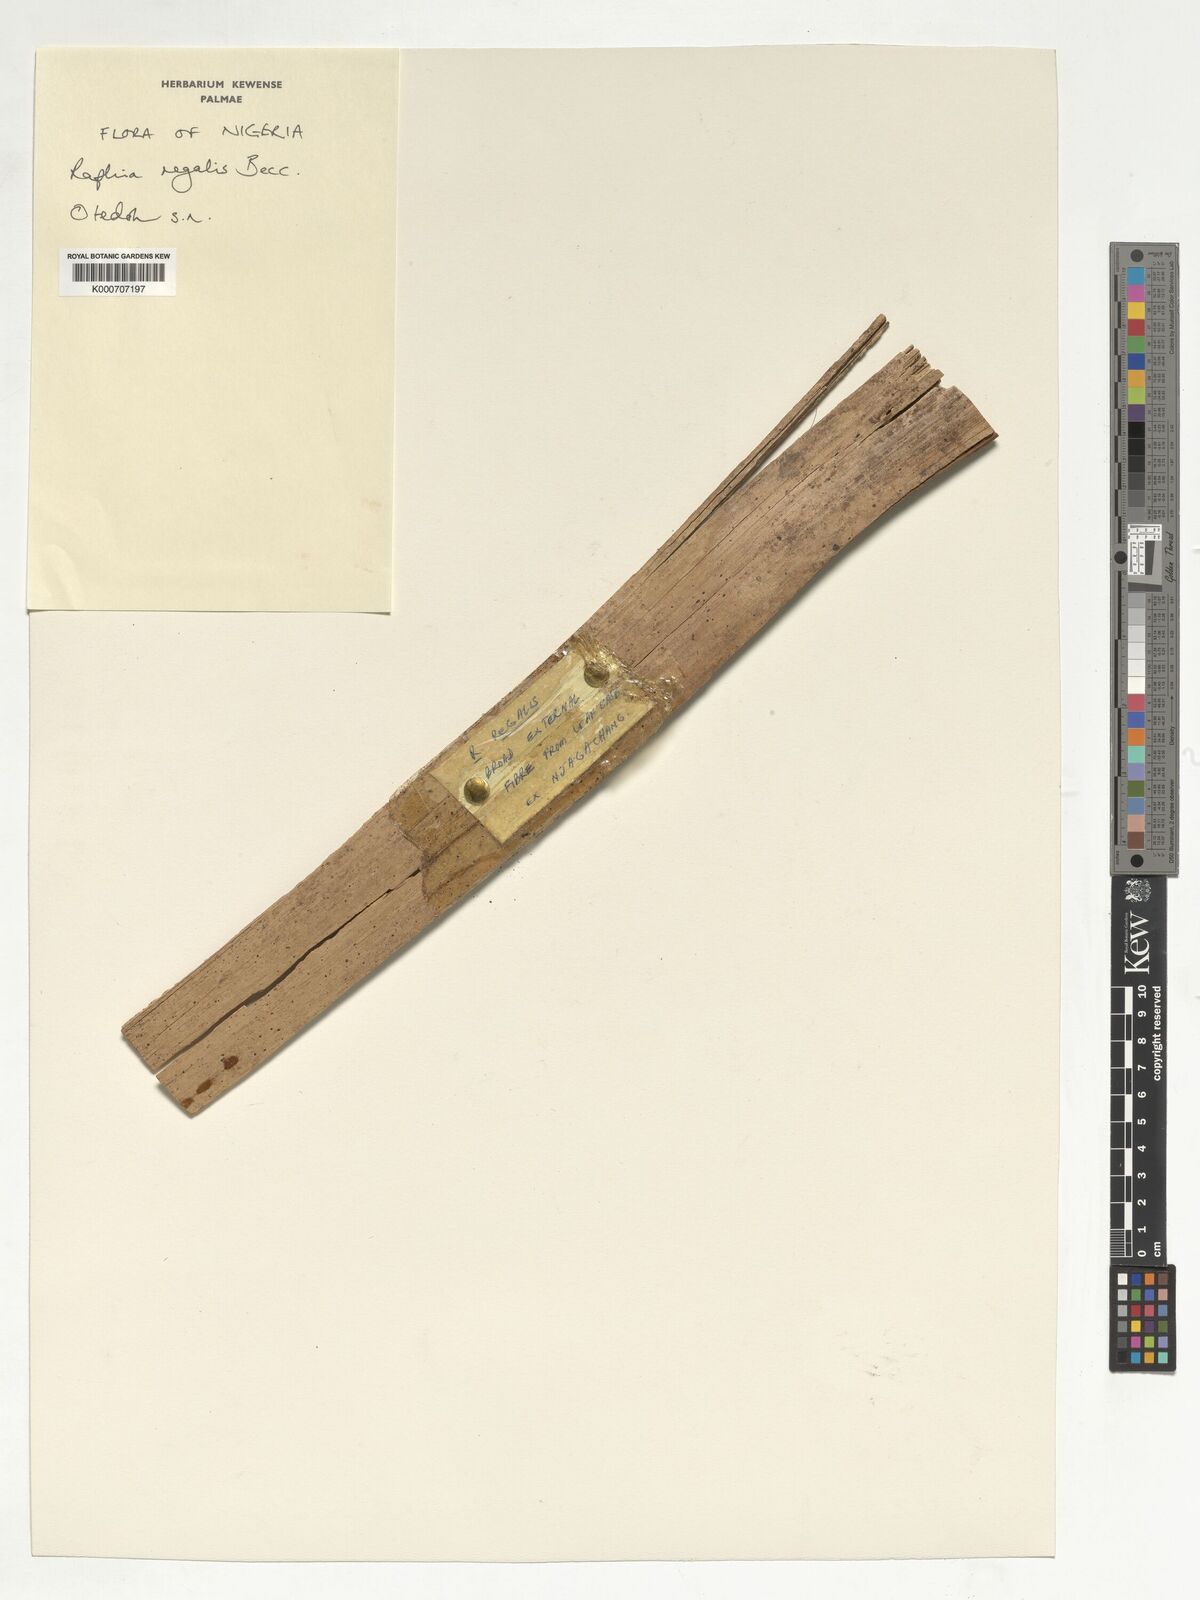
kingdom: Plantae
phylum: Tracheophyta
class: Liliopsida
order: Arecales
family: Arecaceae
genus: Raphia
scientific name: Raphia regalis
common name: Raphia palm
